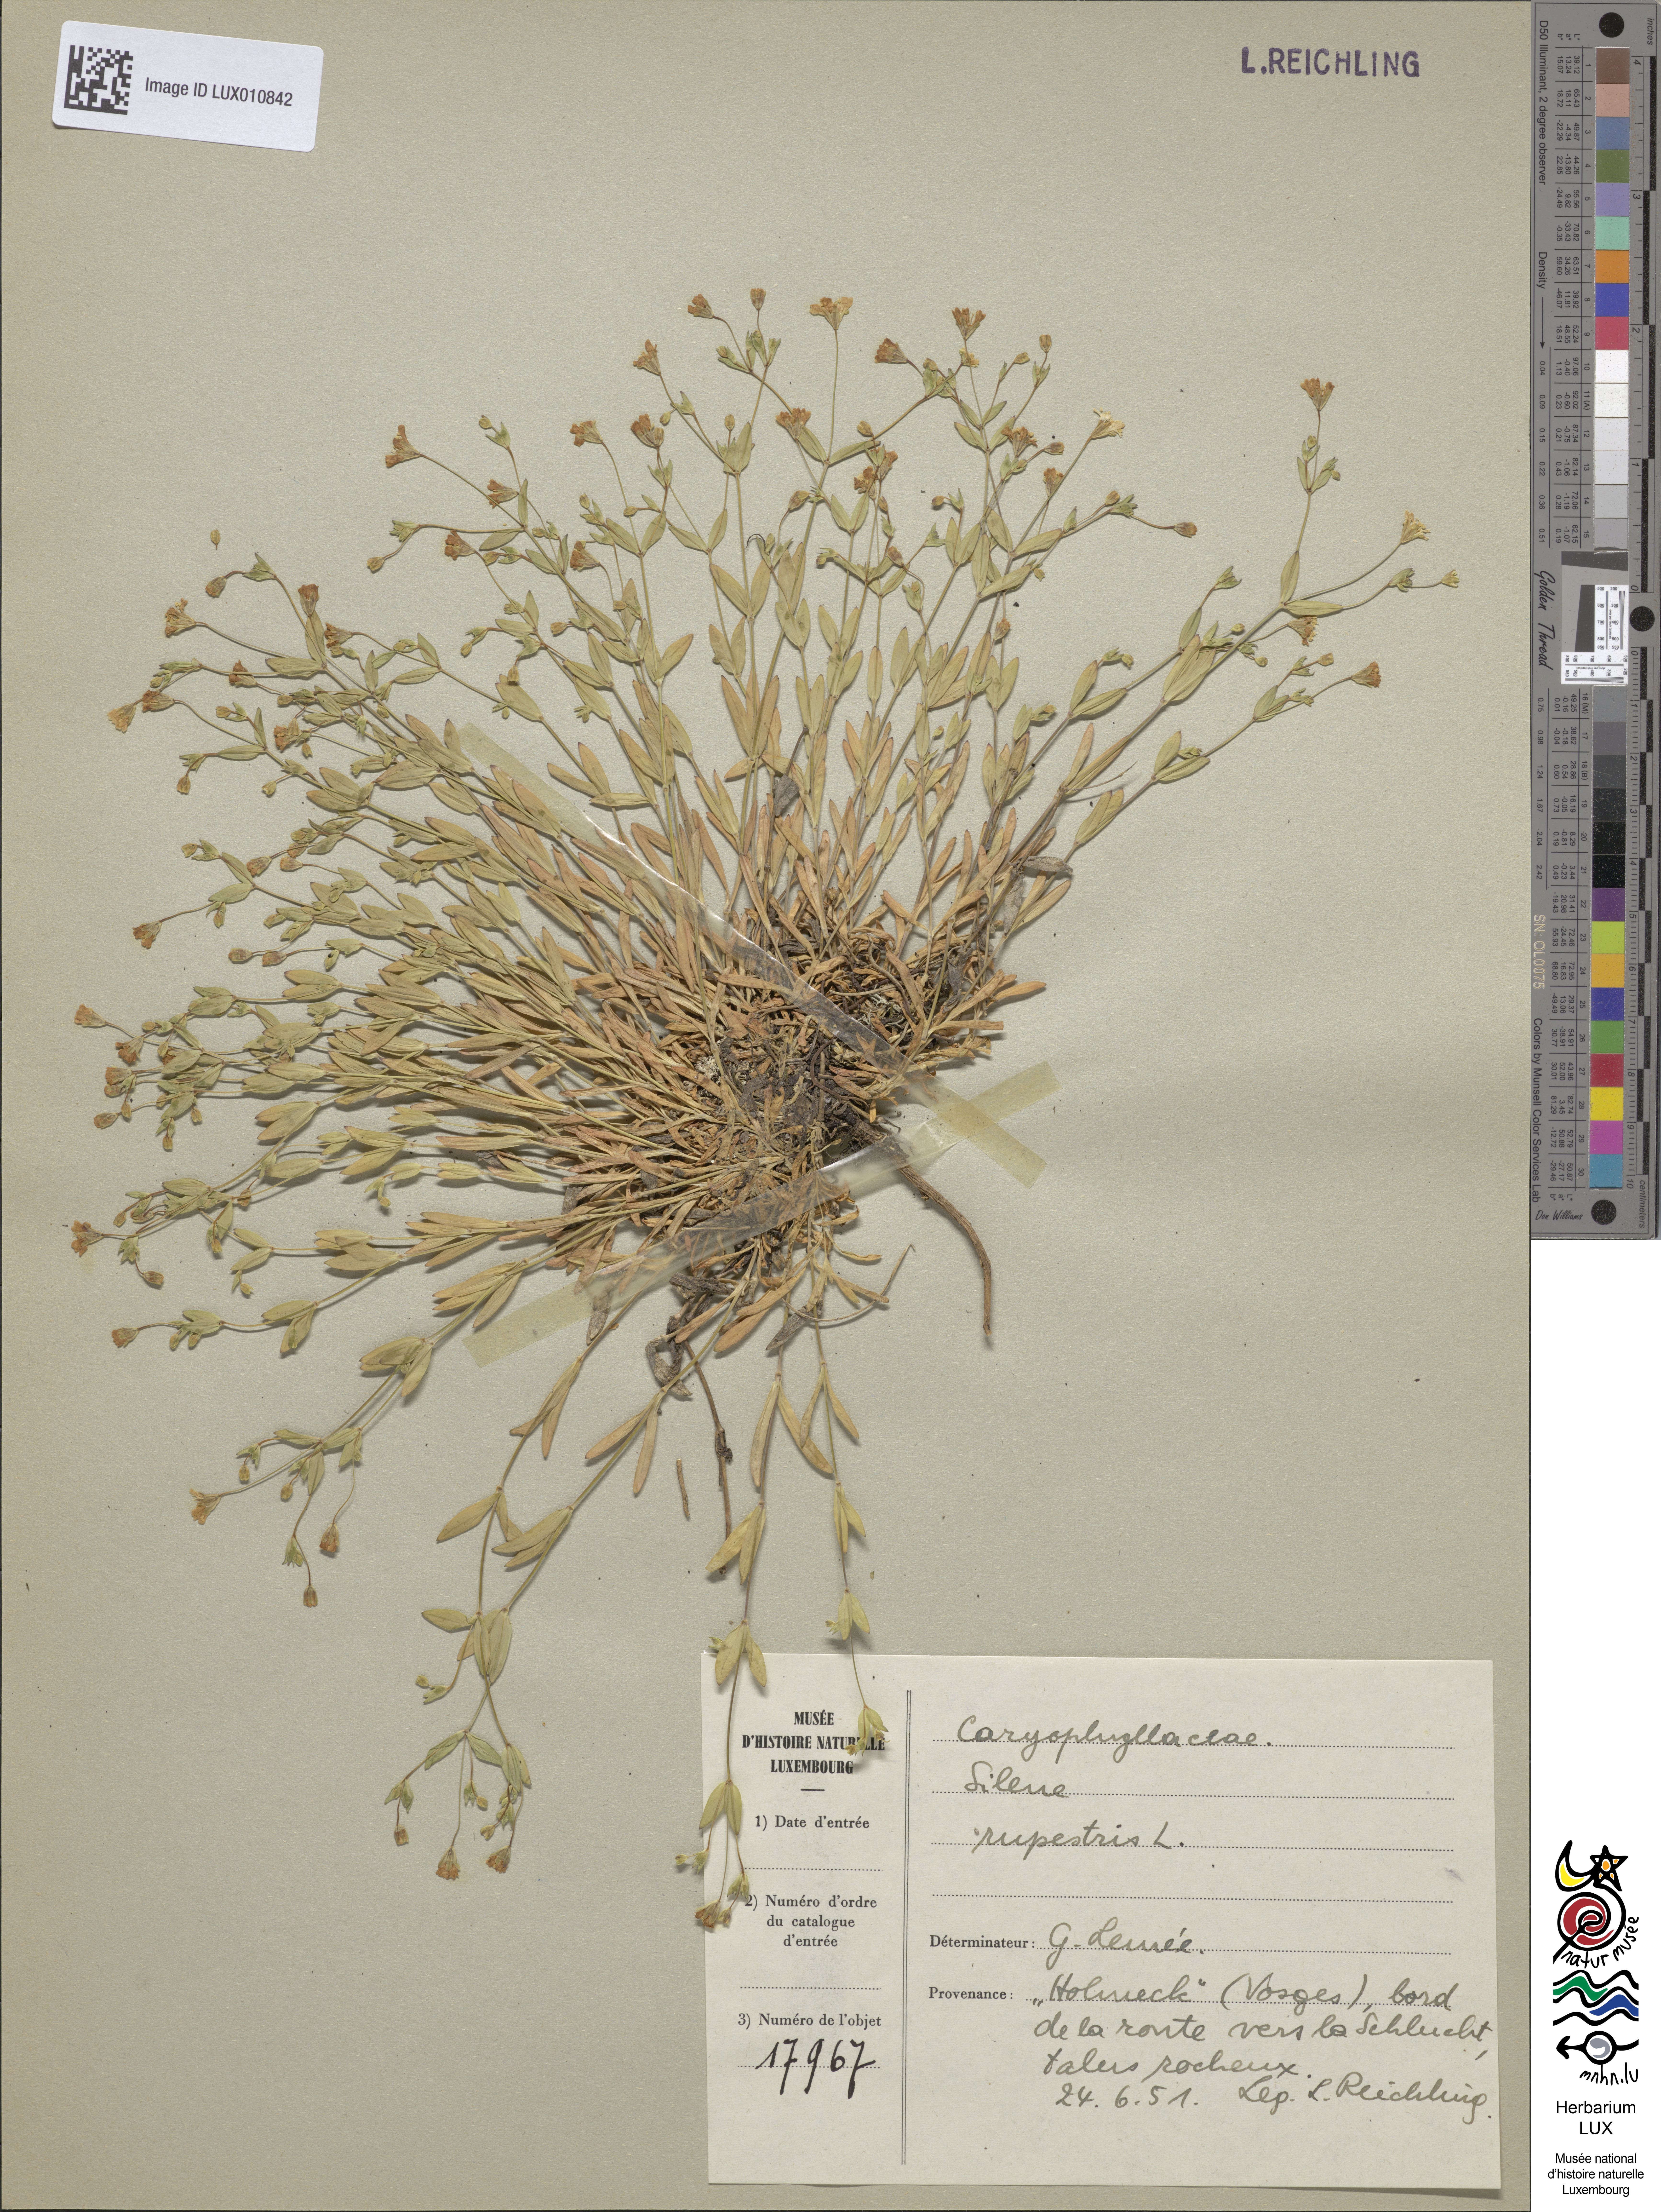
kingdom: Plantae
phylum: Tracheophyta
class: Magnoliopsida
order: Caryophyllales
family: Caryophyllaceae
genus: Atocion
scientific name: Atocion rupestre
